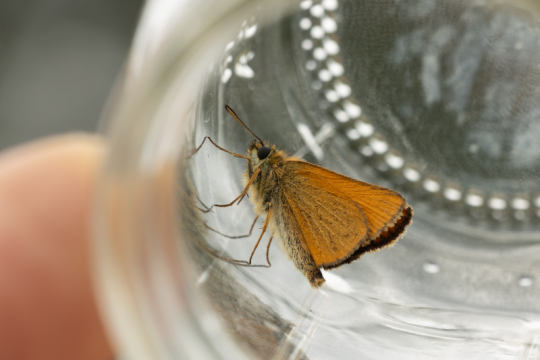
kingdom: Animalia
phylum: Arthropoda
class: Insecta
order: Lepidoptera
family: Hesperiidae
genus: Thymelicus
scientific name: Thymelicus lineola
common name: European Skipper
